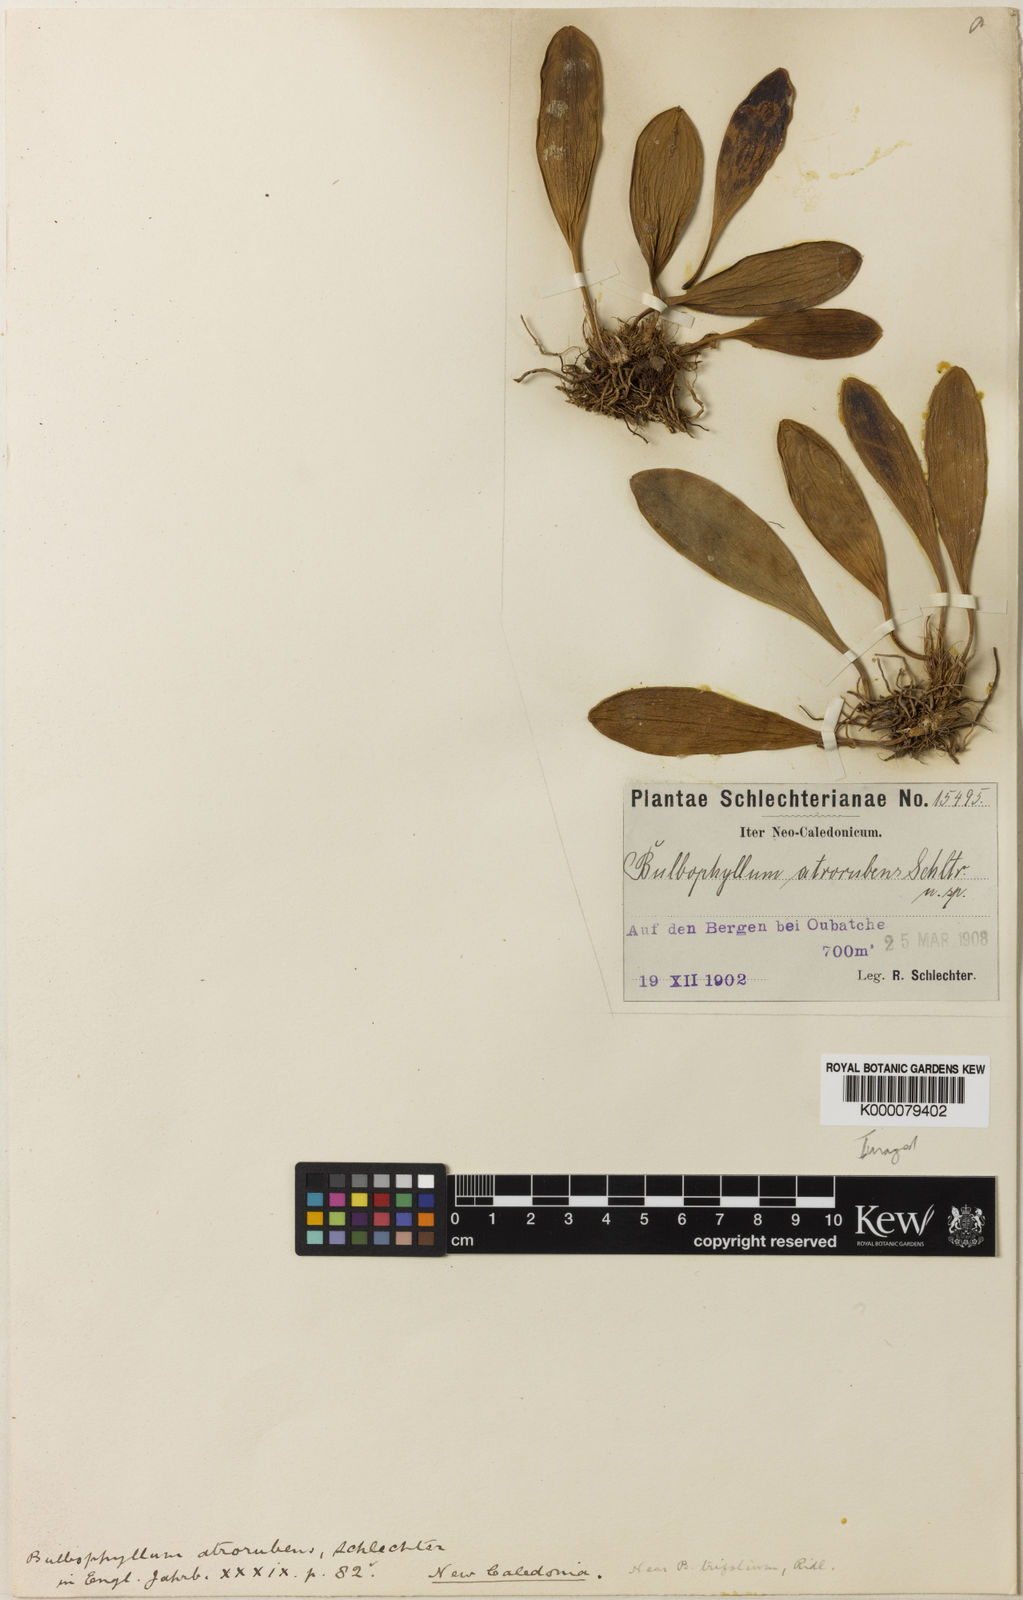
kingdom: Plantae
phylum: Tracheophyta
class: Liliopsida
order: Asparagales
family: Orchidaceae
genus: Bulbophyllum
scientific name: Bulbophyllum atrorubens
